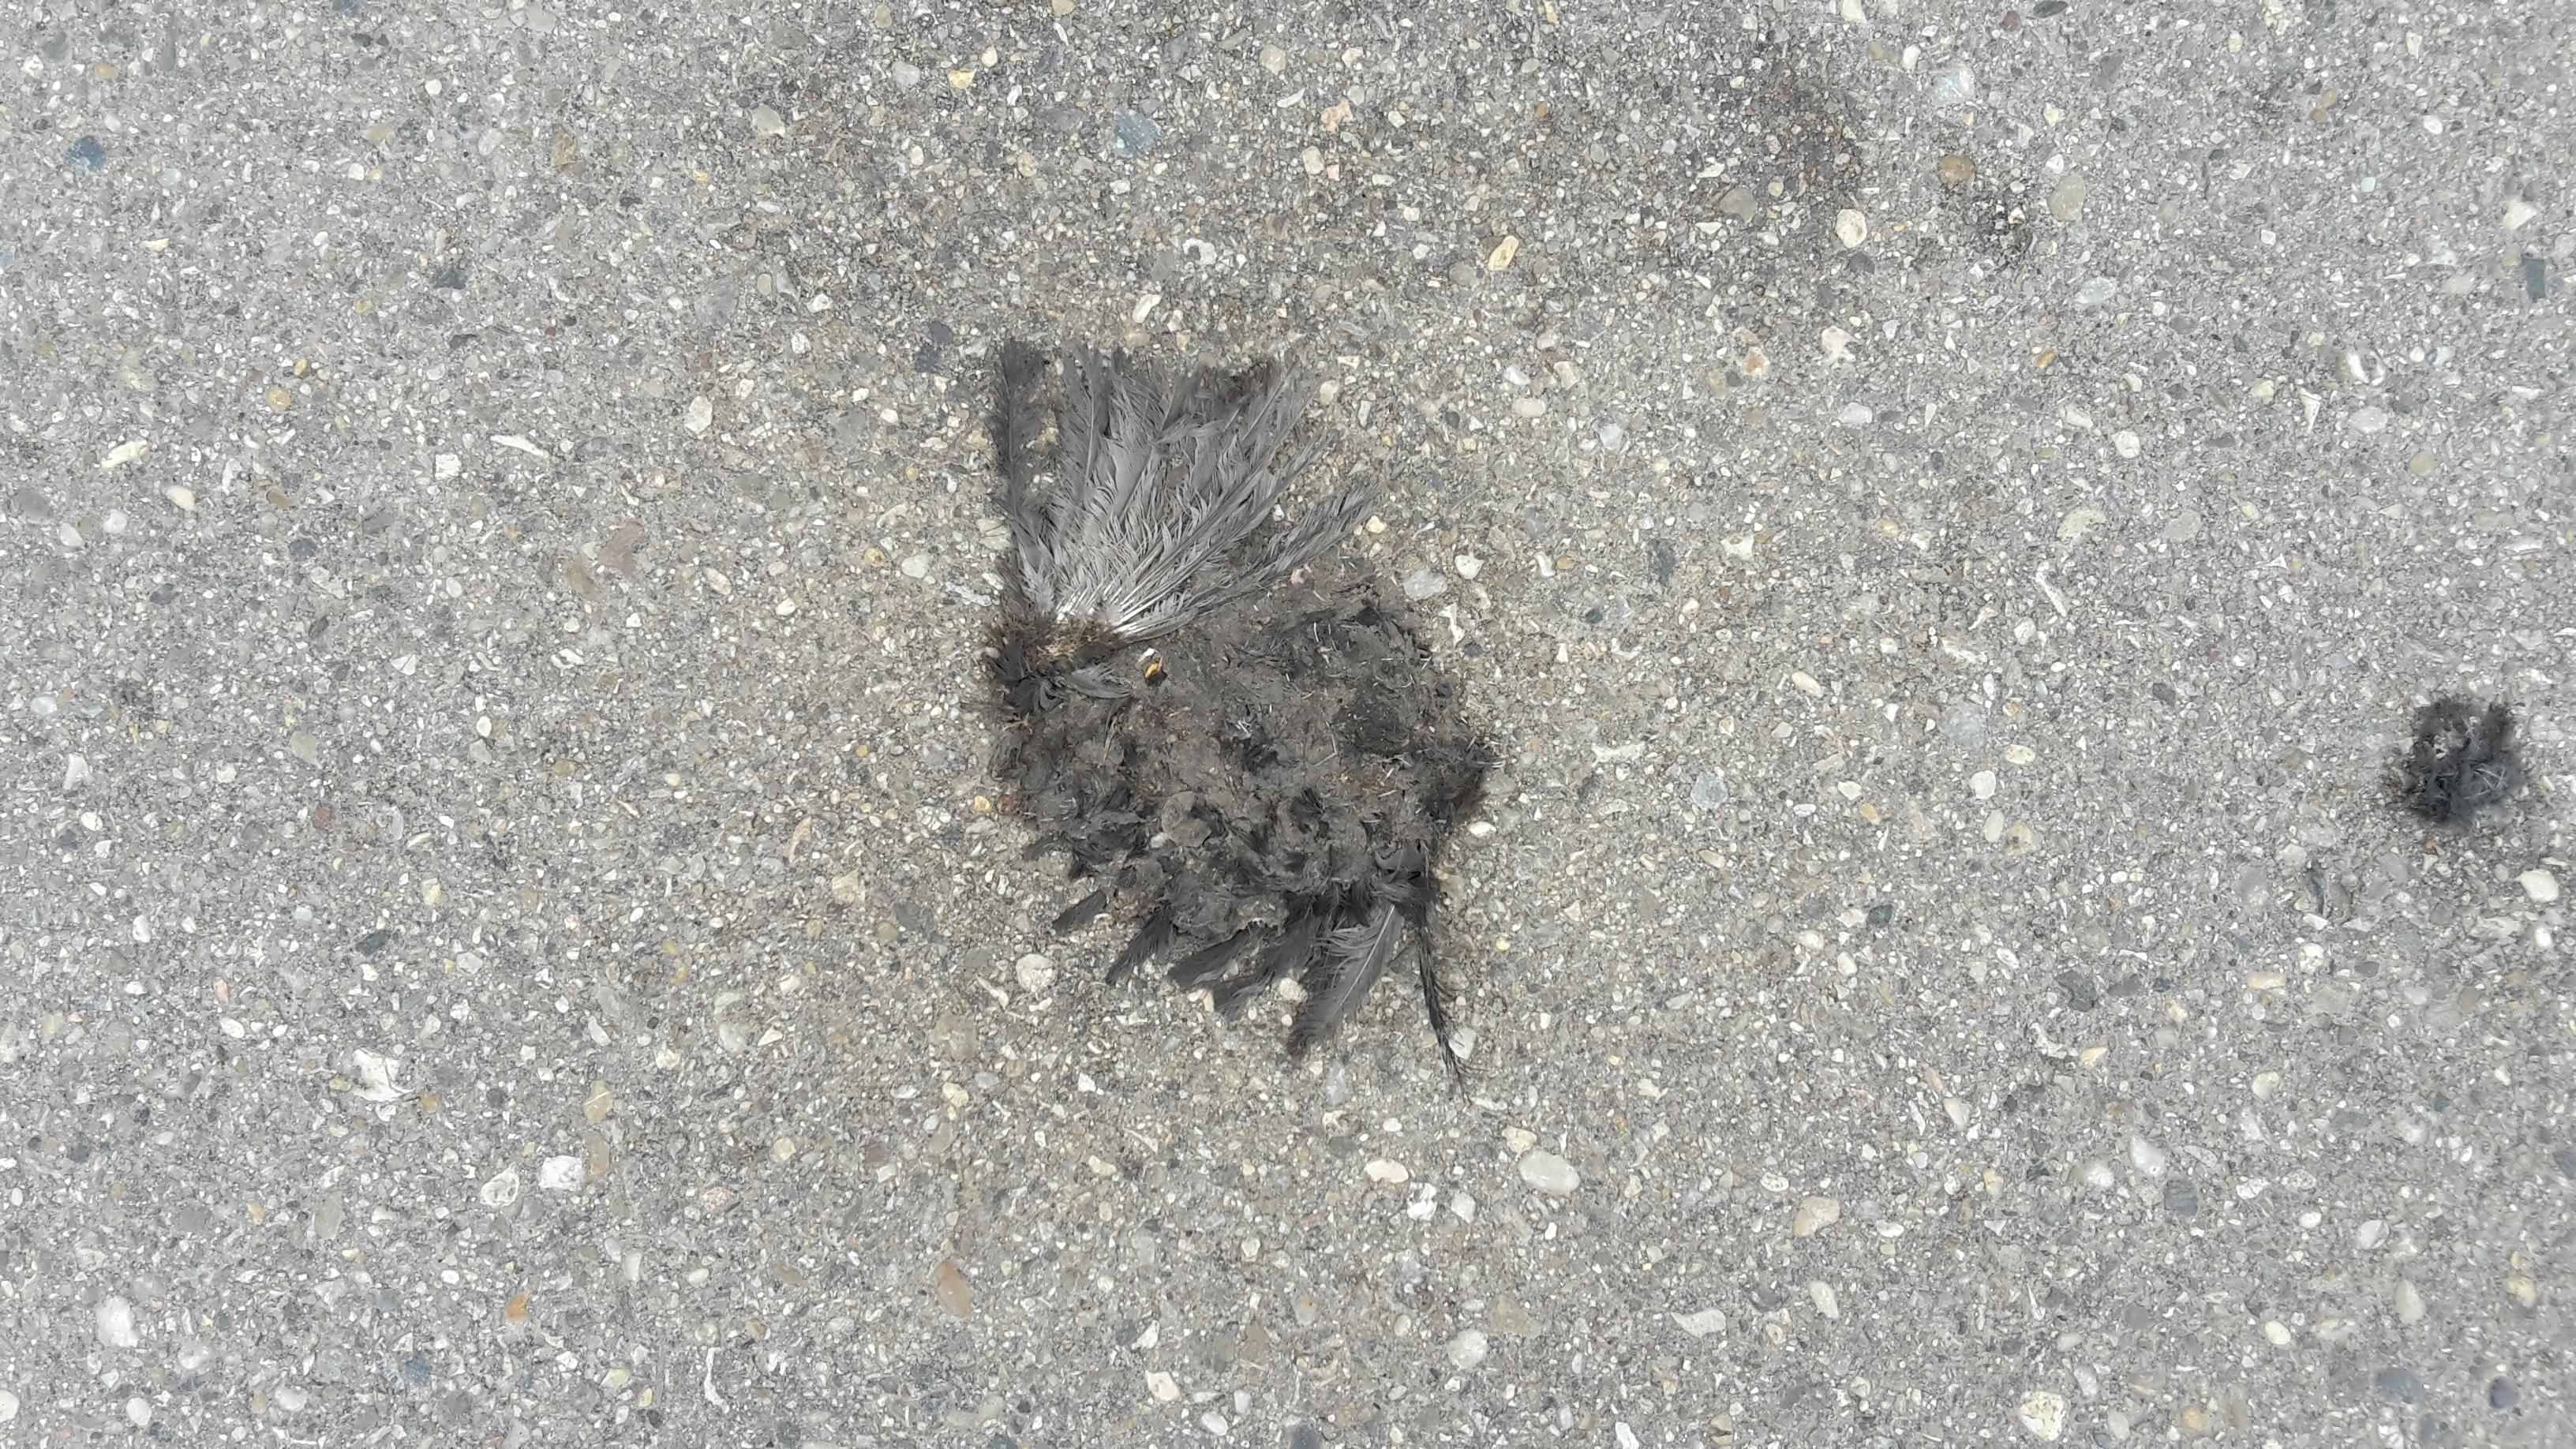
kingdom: Animalia
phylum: Chordata
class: Aves
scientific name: Aves
